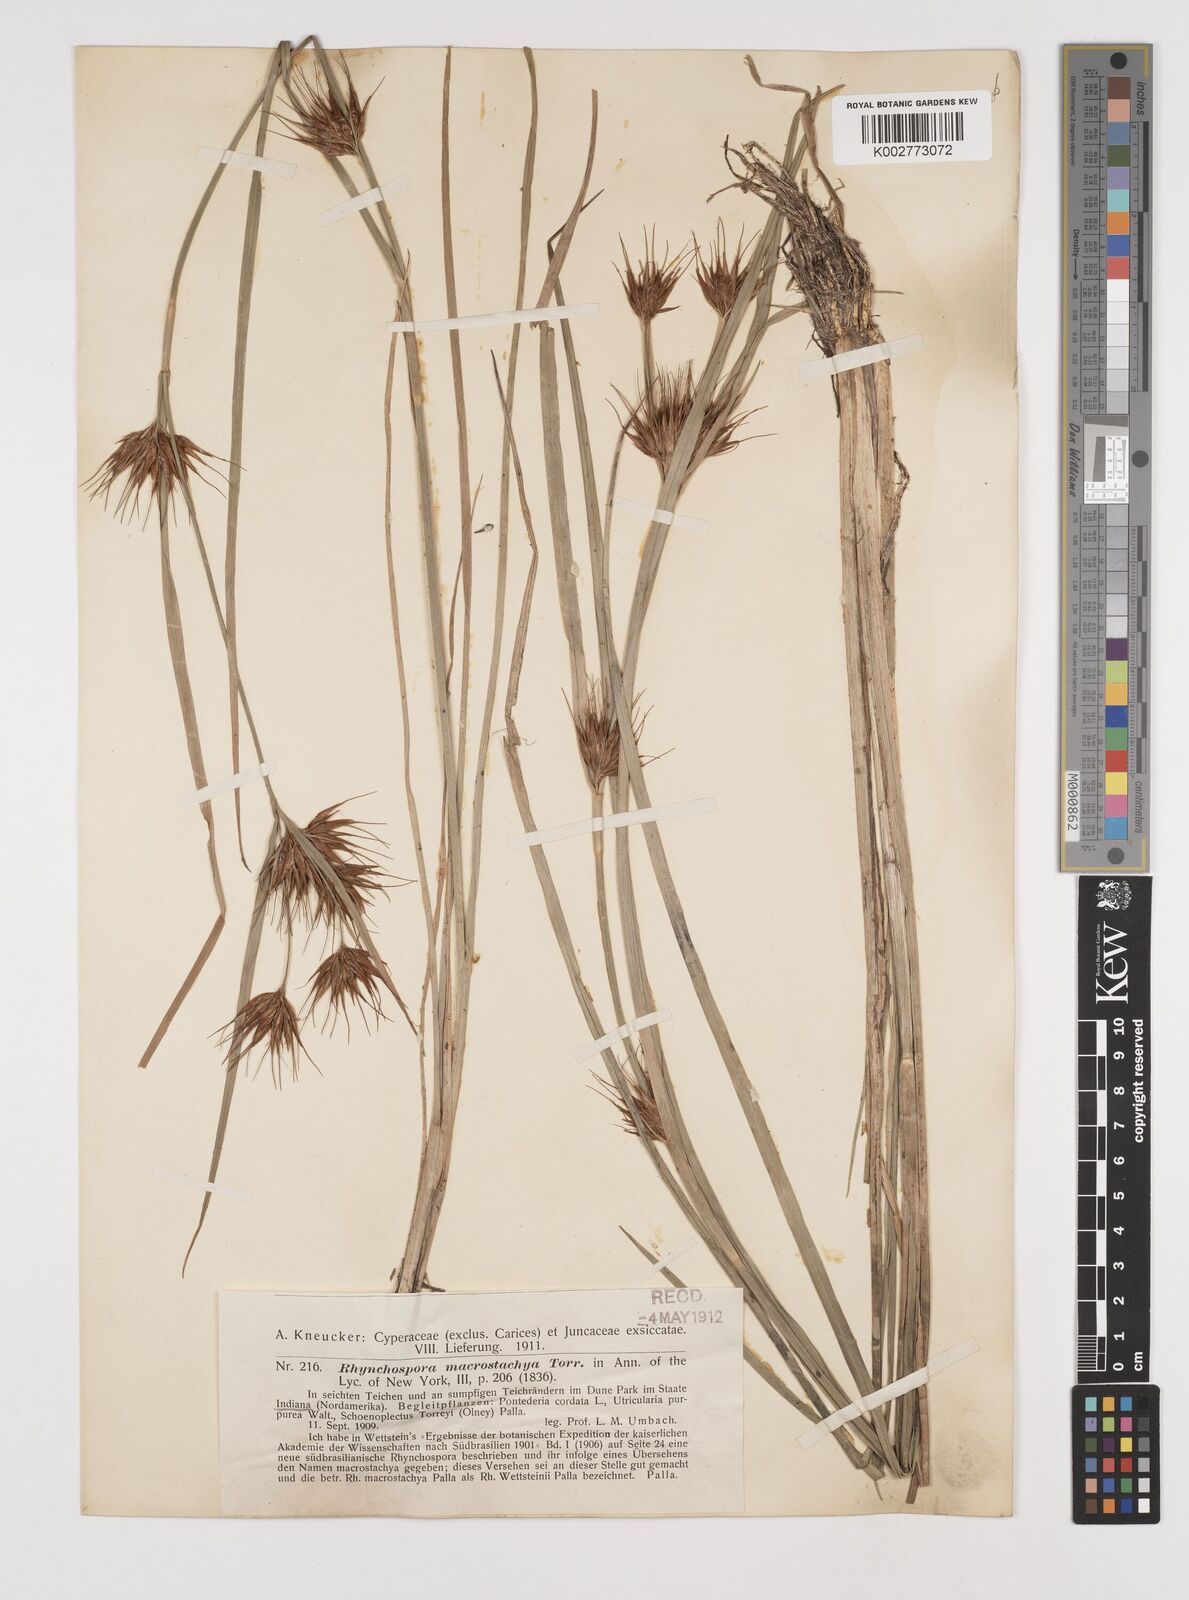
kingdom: Plantae
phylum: Tracheophyta
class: Liliopsida
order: Poales
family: Cyperaceae
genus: Rhynchospora
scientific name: Rhynchospora macrostachya
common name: Tall beakrush
